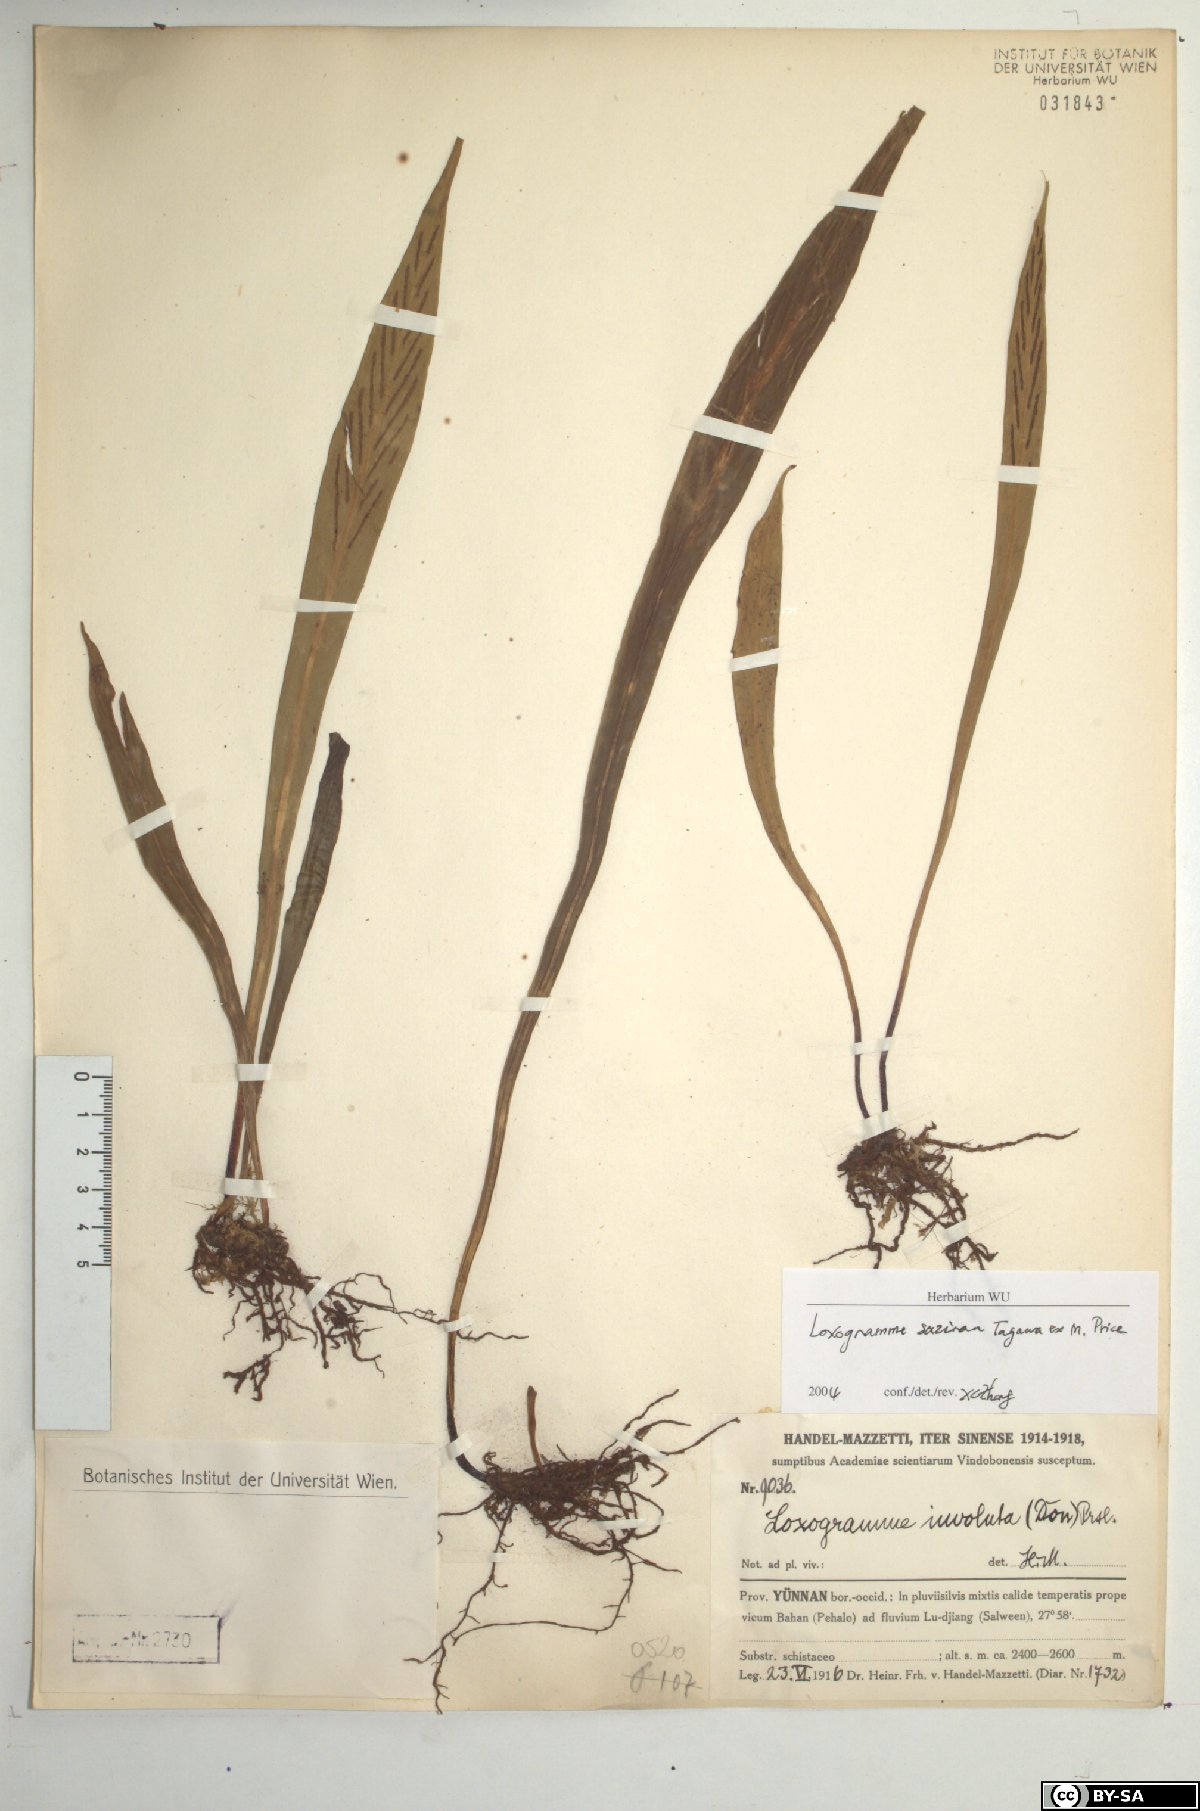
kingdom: Plantae
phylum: Tracheophyta
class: Polypodiopsida
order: Polypodiales
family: Polypodiaceae
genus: Loxogramme
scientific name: Loxogramme cuspidata
